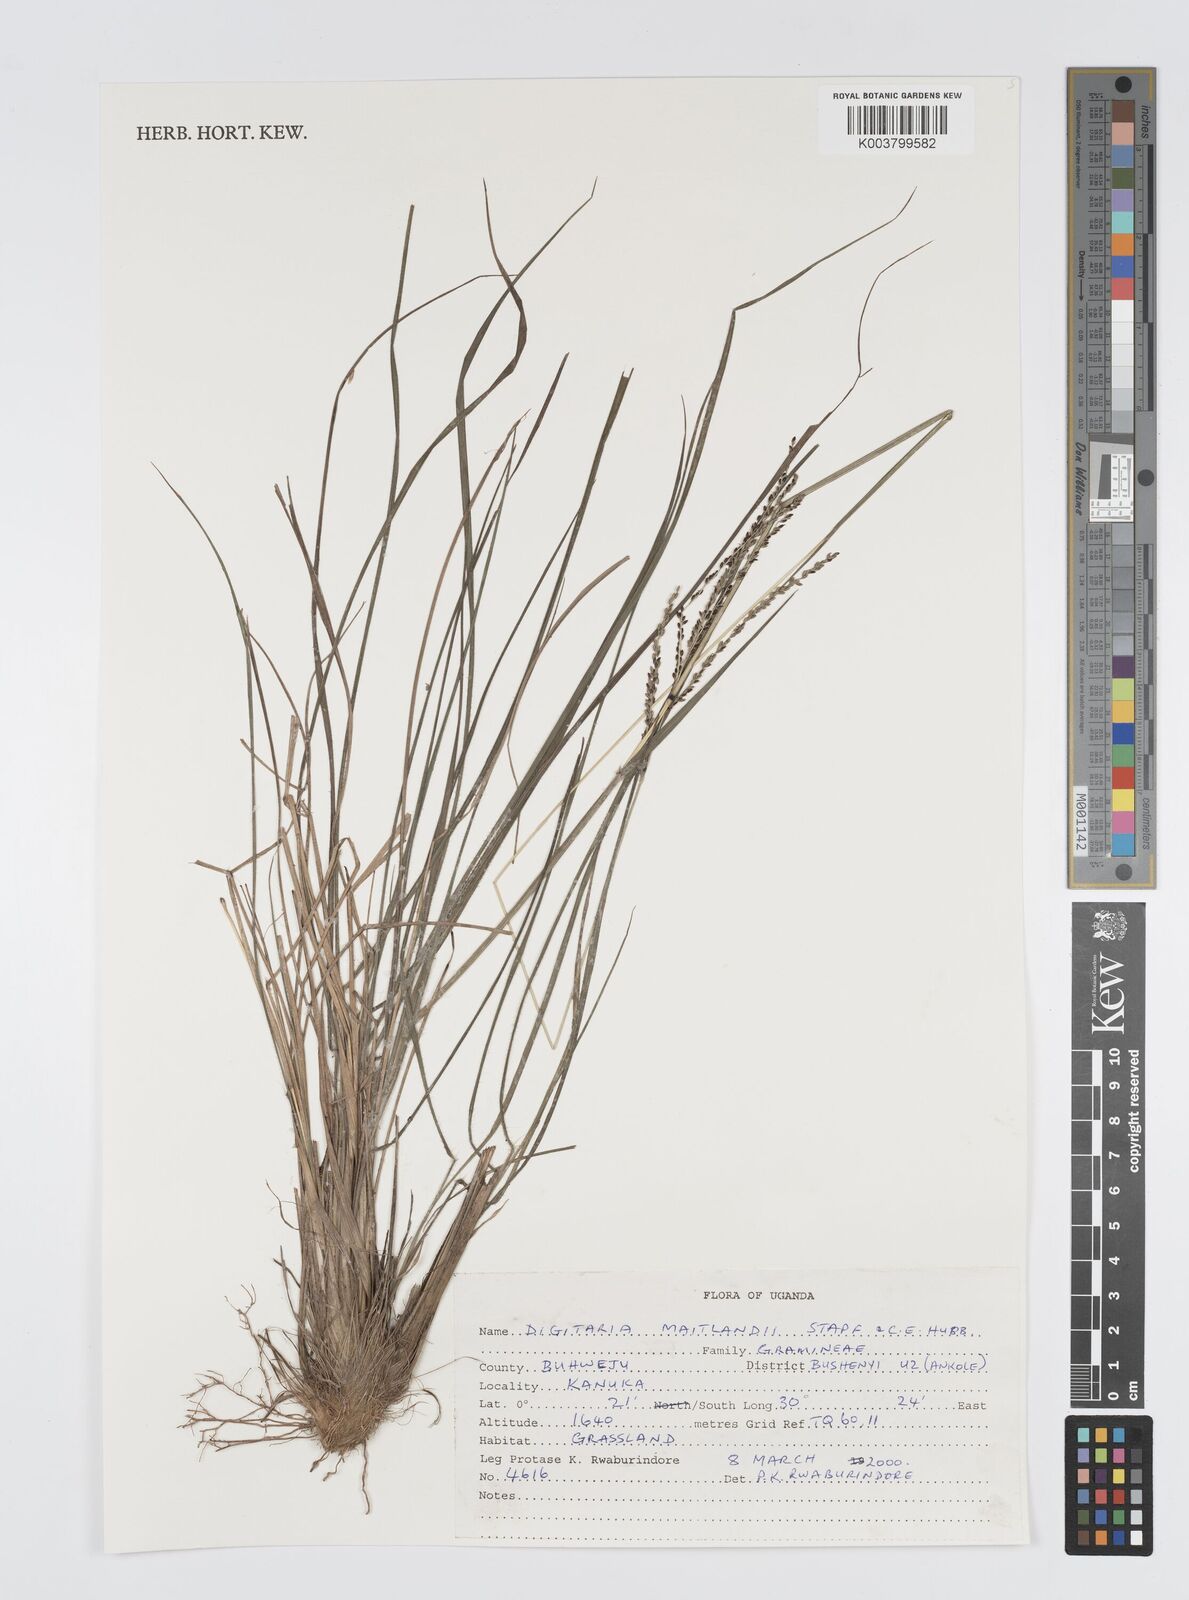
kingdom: Plantae
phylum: Tracheophyta
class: Liliopsida
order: Poales
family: Poaceae
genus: Digitaria
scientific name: Digitaria maitlandii
